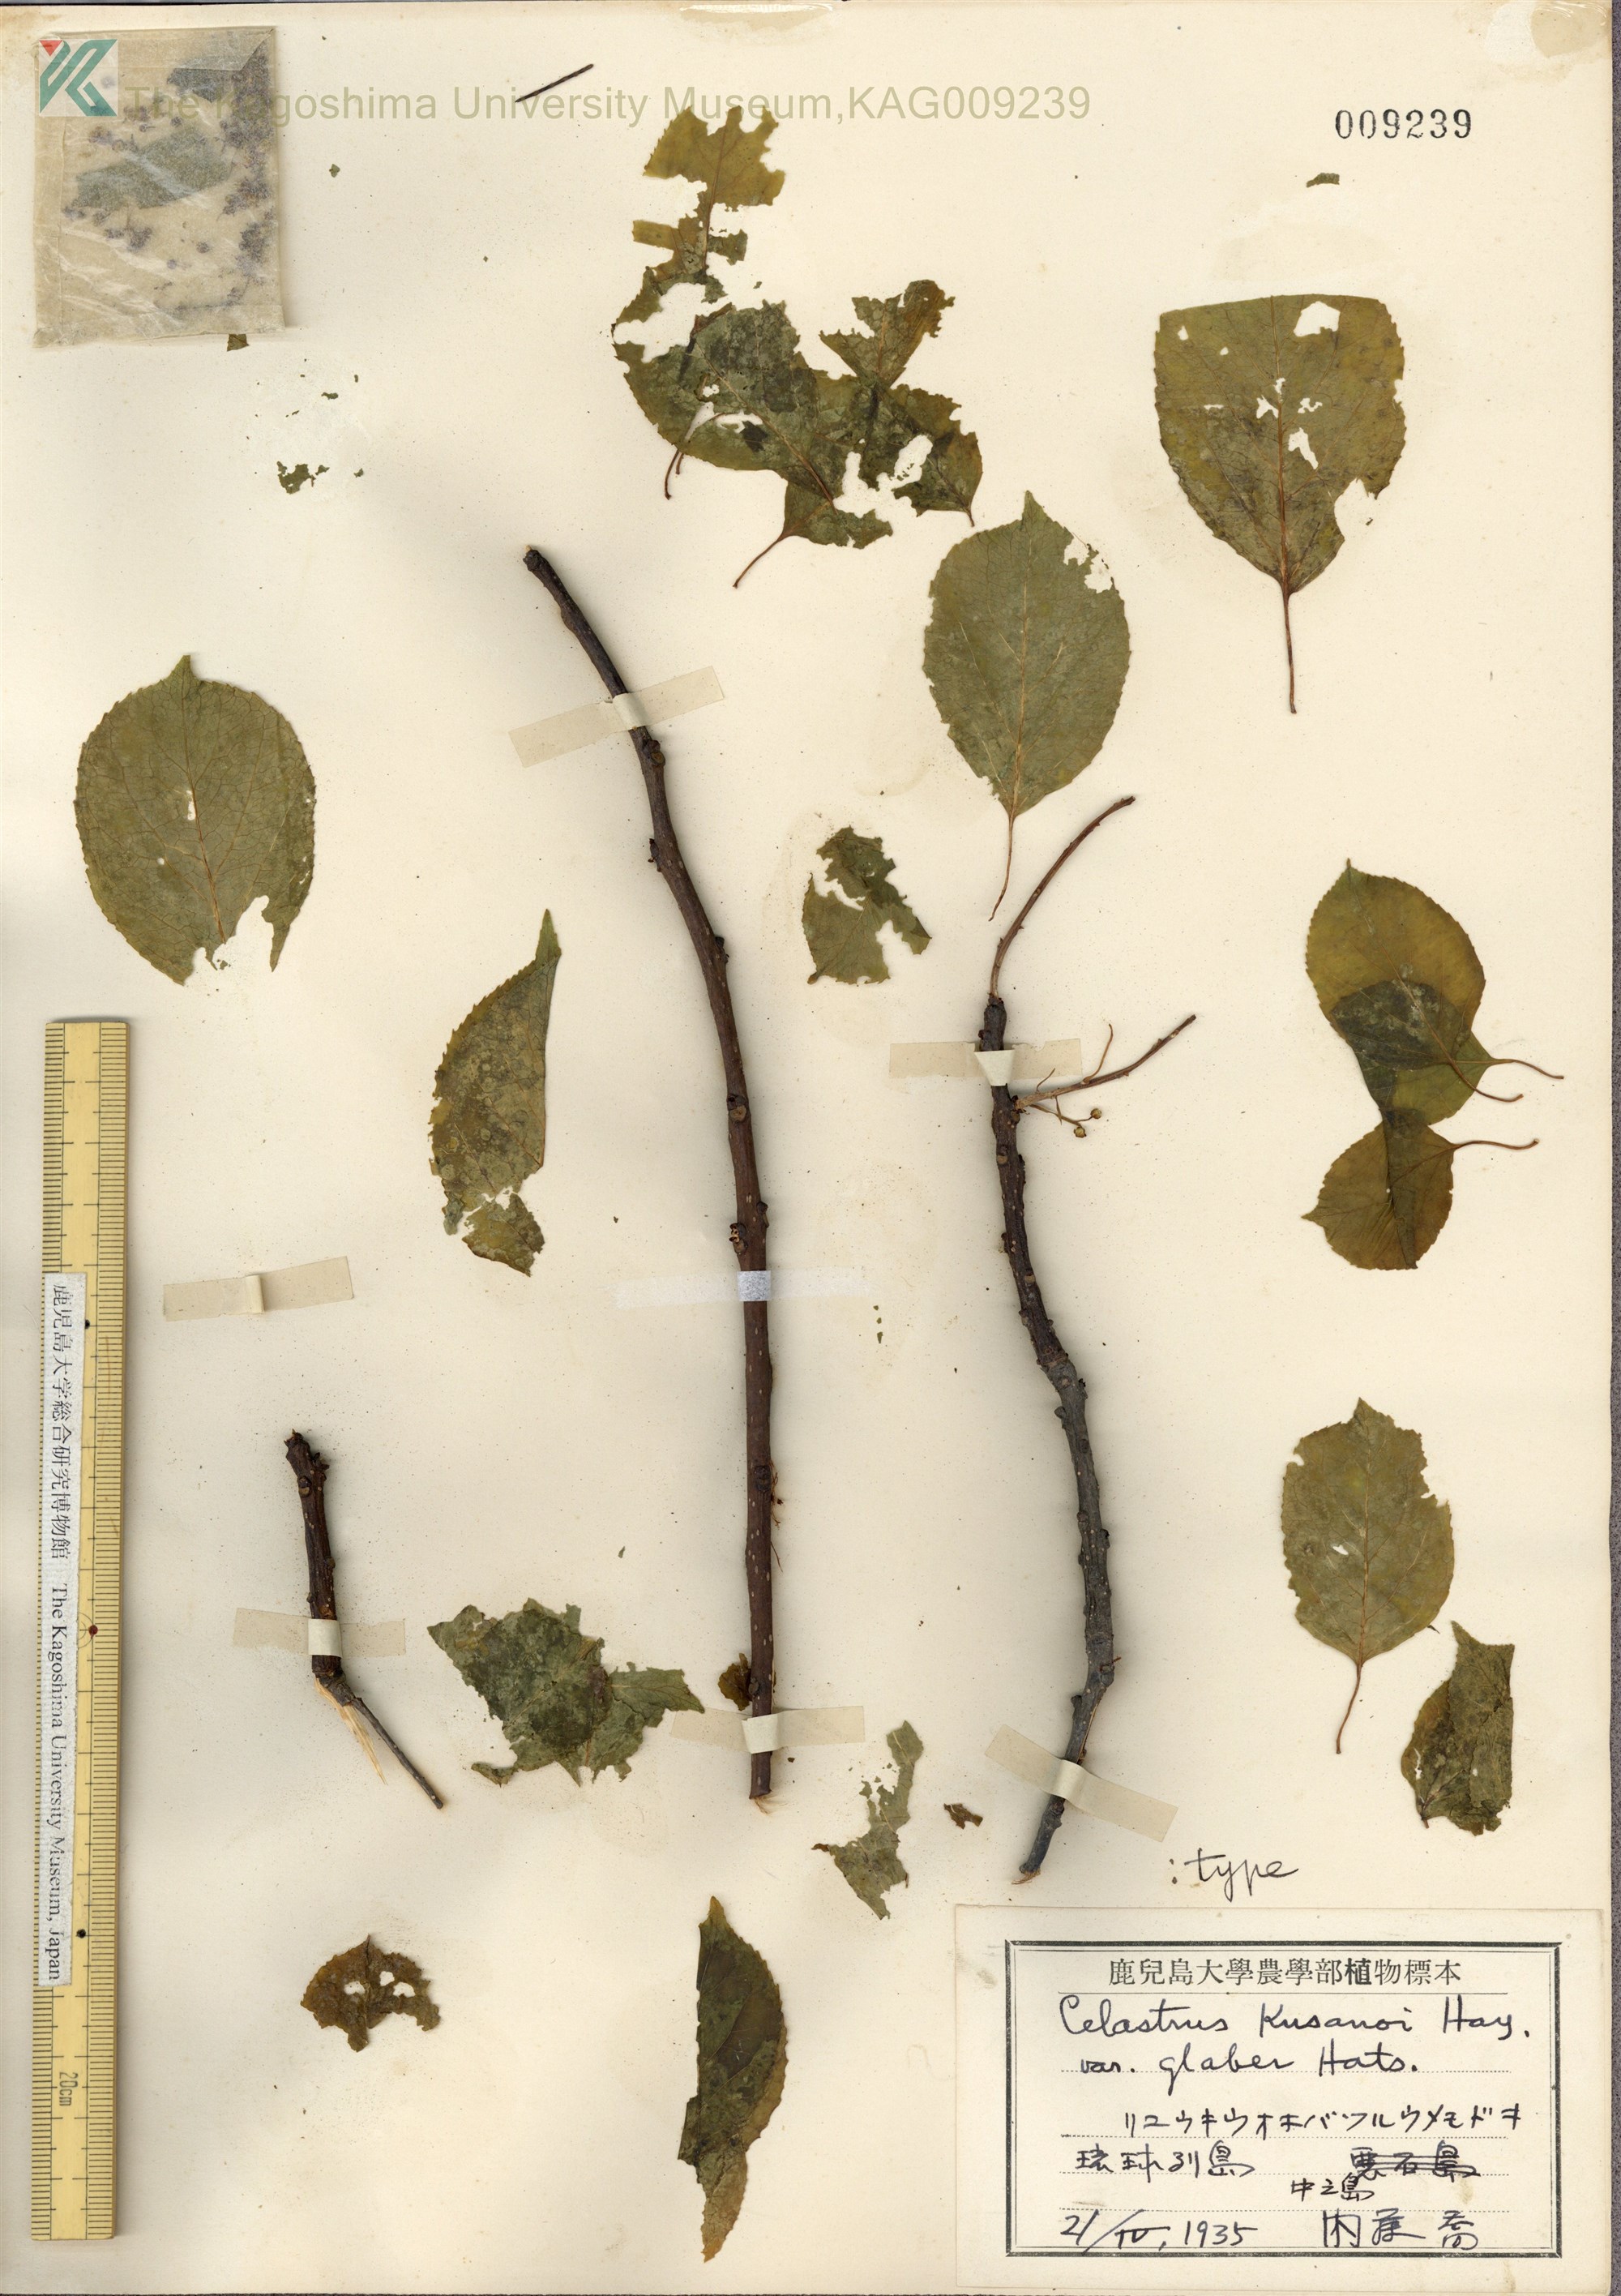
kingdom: Plantae
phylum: Tracheophyta
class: Magnoliopsida
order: Celastrales
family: Celastraceae
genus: Celastrus
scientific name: Celastrus hypoleucus
